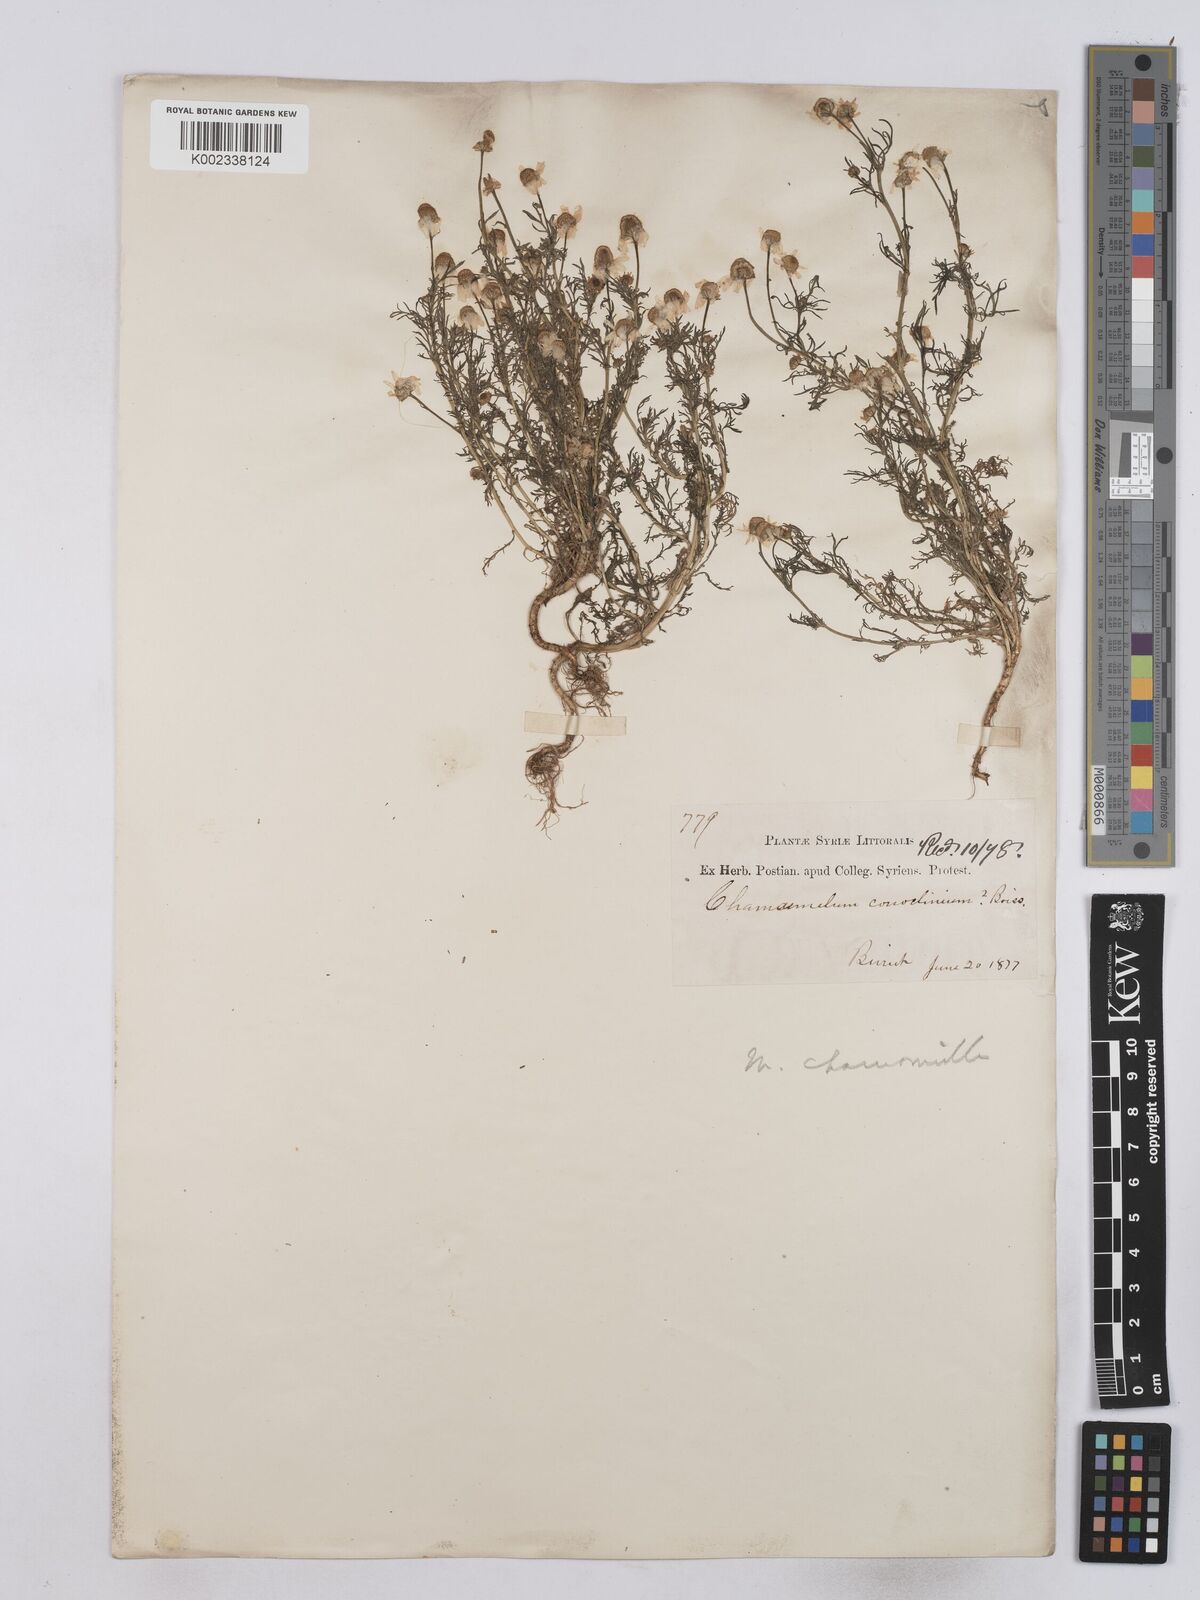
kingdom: Plantae
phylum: Tracheophyta
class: Magnoliopsida
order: Asterales
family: Asteraceae
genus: Matricaria
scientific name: Matricaria chamomilla
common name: Scented mayweed
